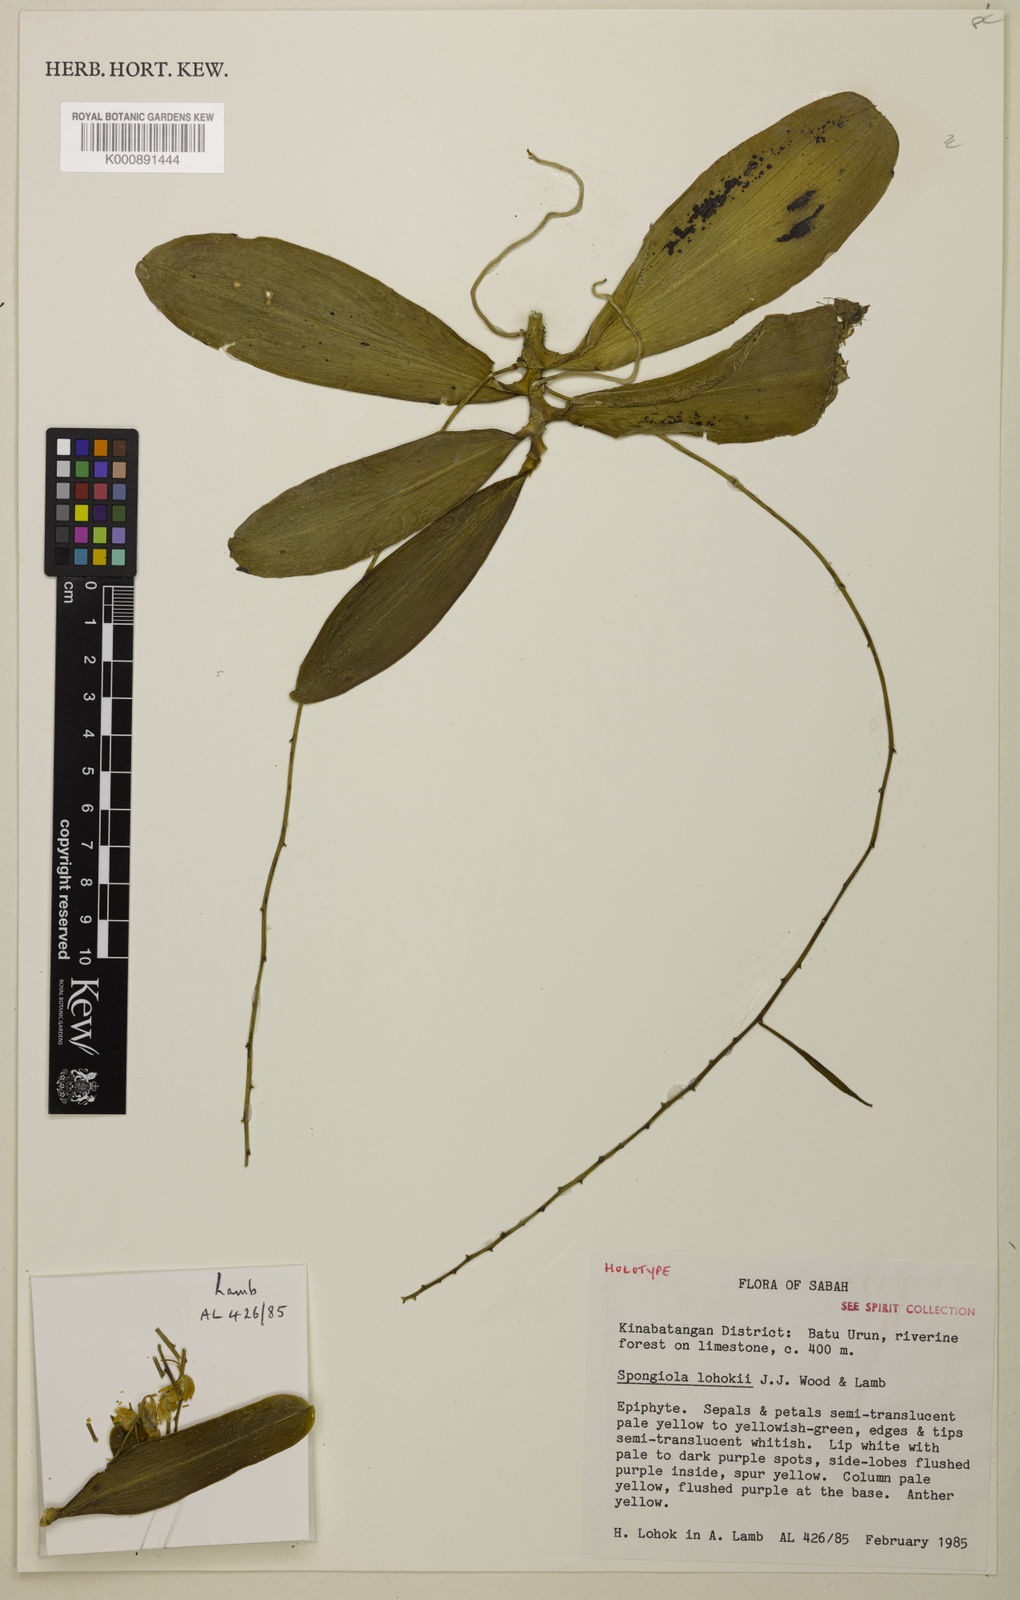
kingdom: Plantae
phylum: Tracheophyta
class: Liliopsida
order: Asparagales
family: Orchidaceae
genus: Pennilabium
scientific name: Pennilabium lohokii
